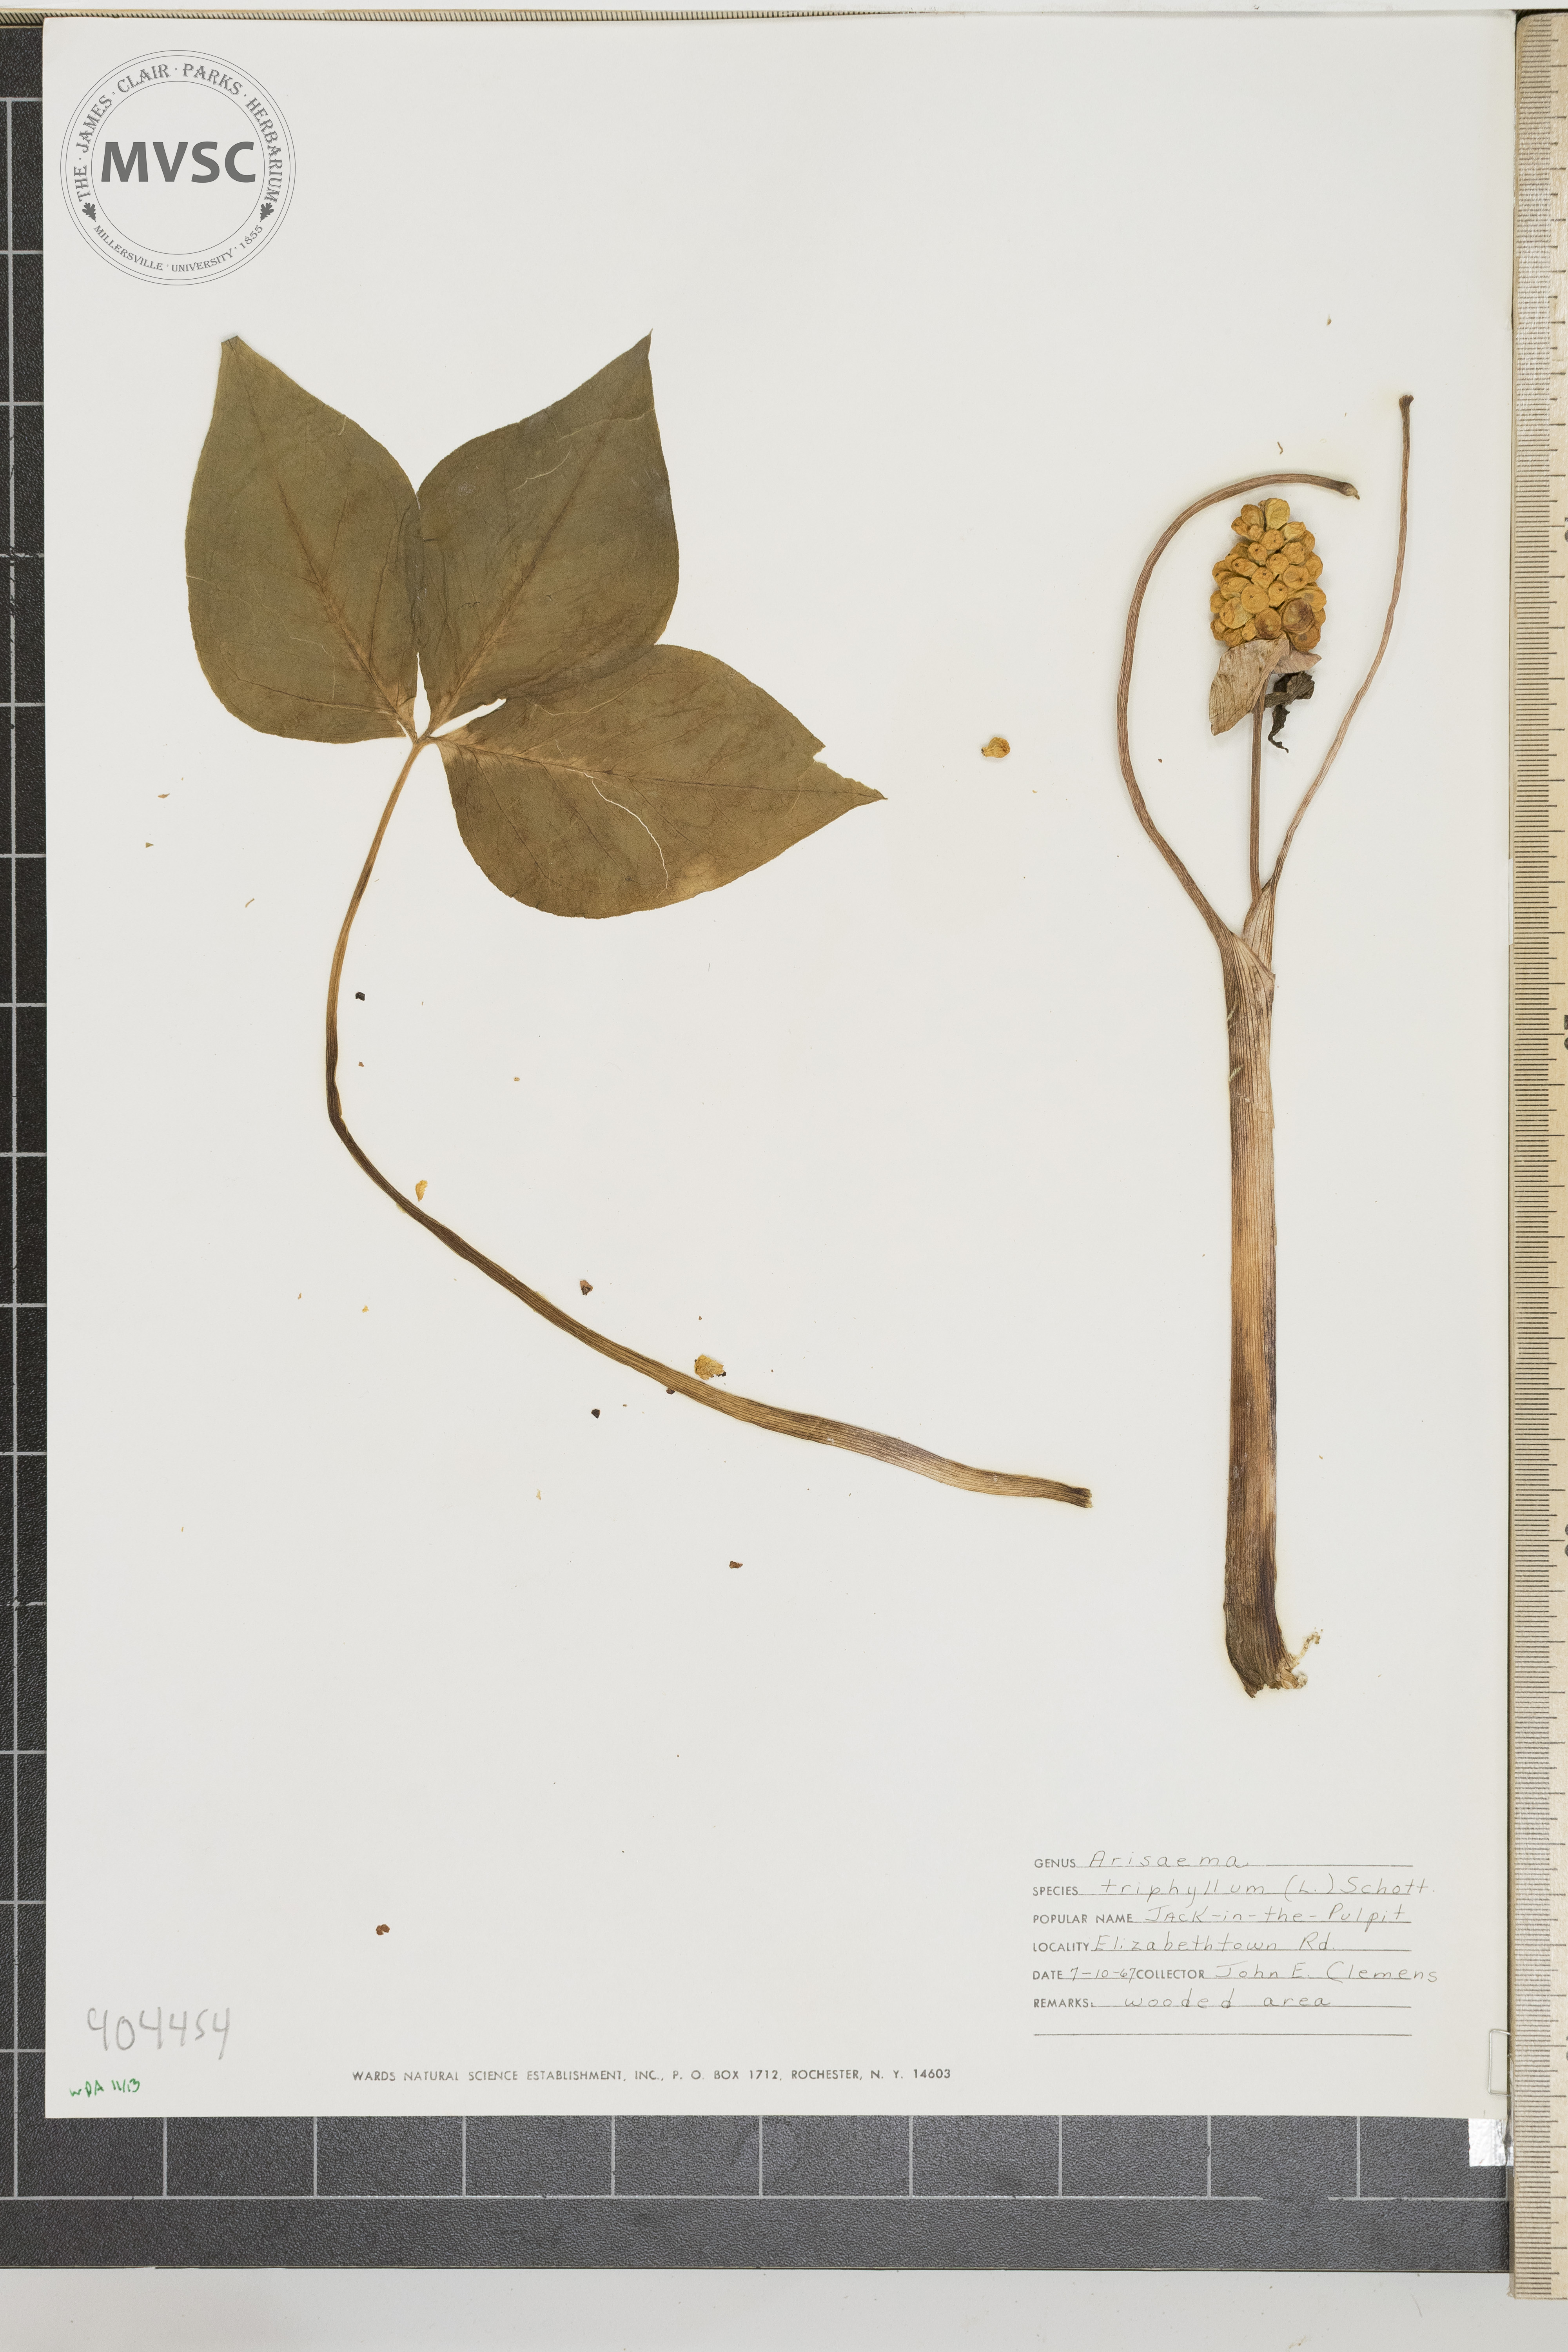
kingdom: Plantae
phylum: Tracheophyta
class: Liliopsida
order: Alismatales
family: Araceae
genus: Arisaema
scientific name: Arisaema triphyllum
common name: Jack-in-the-Pulpit
